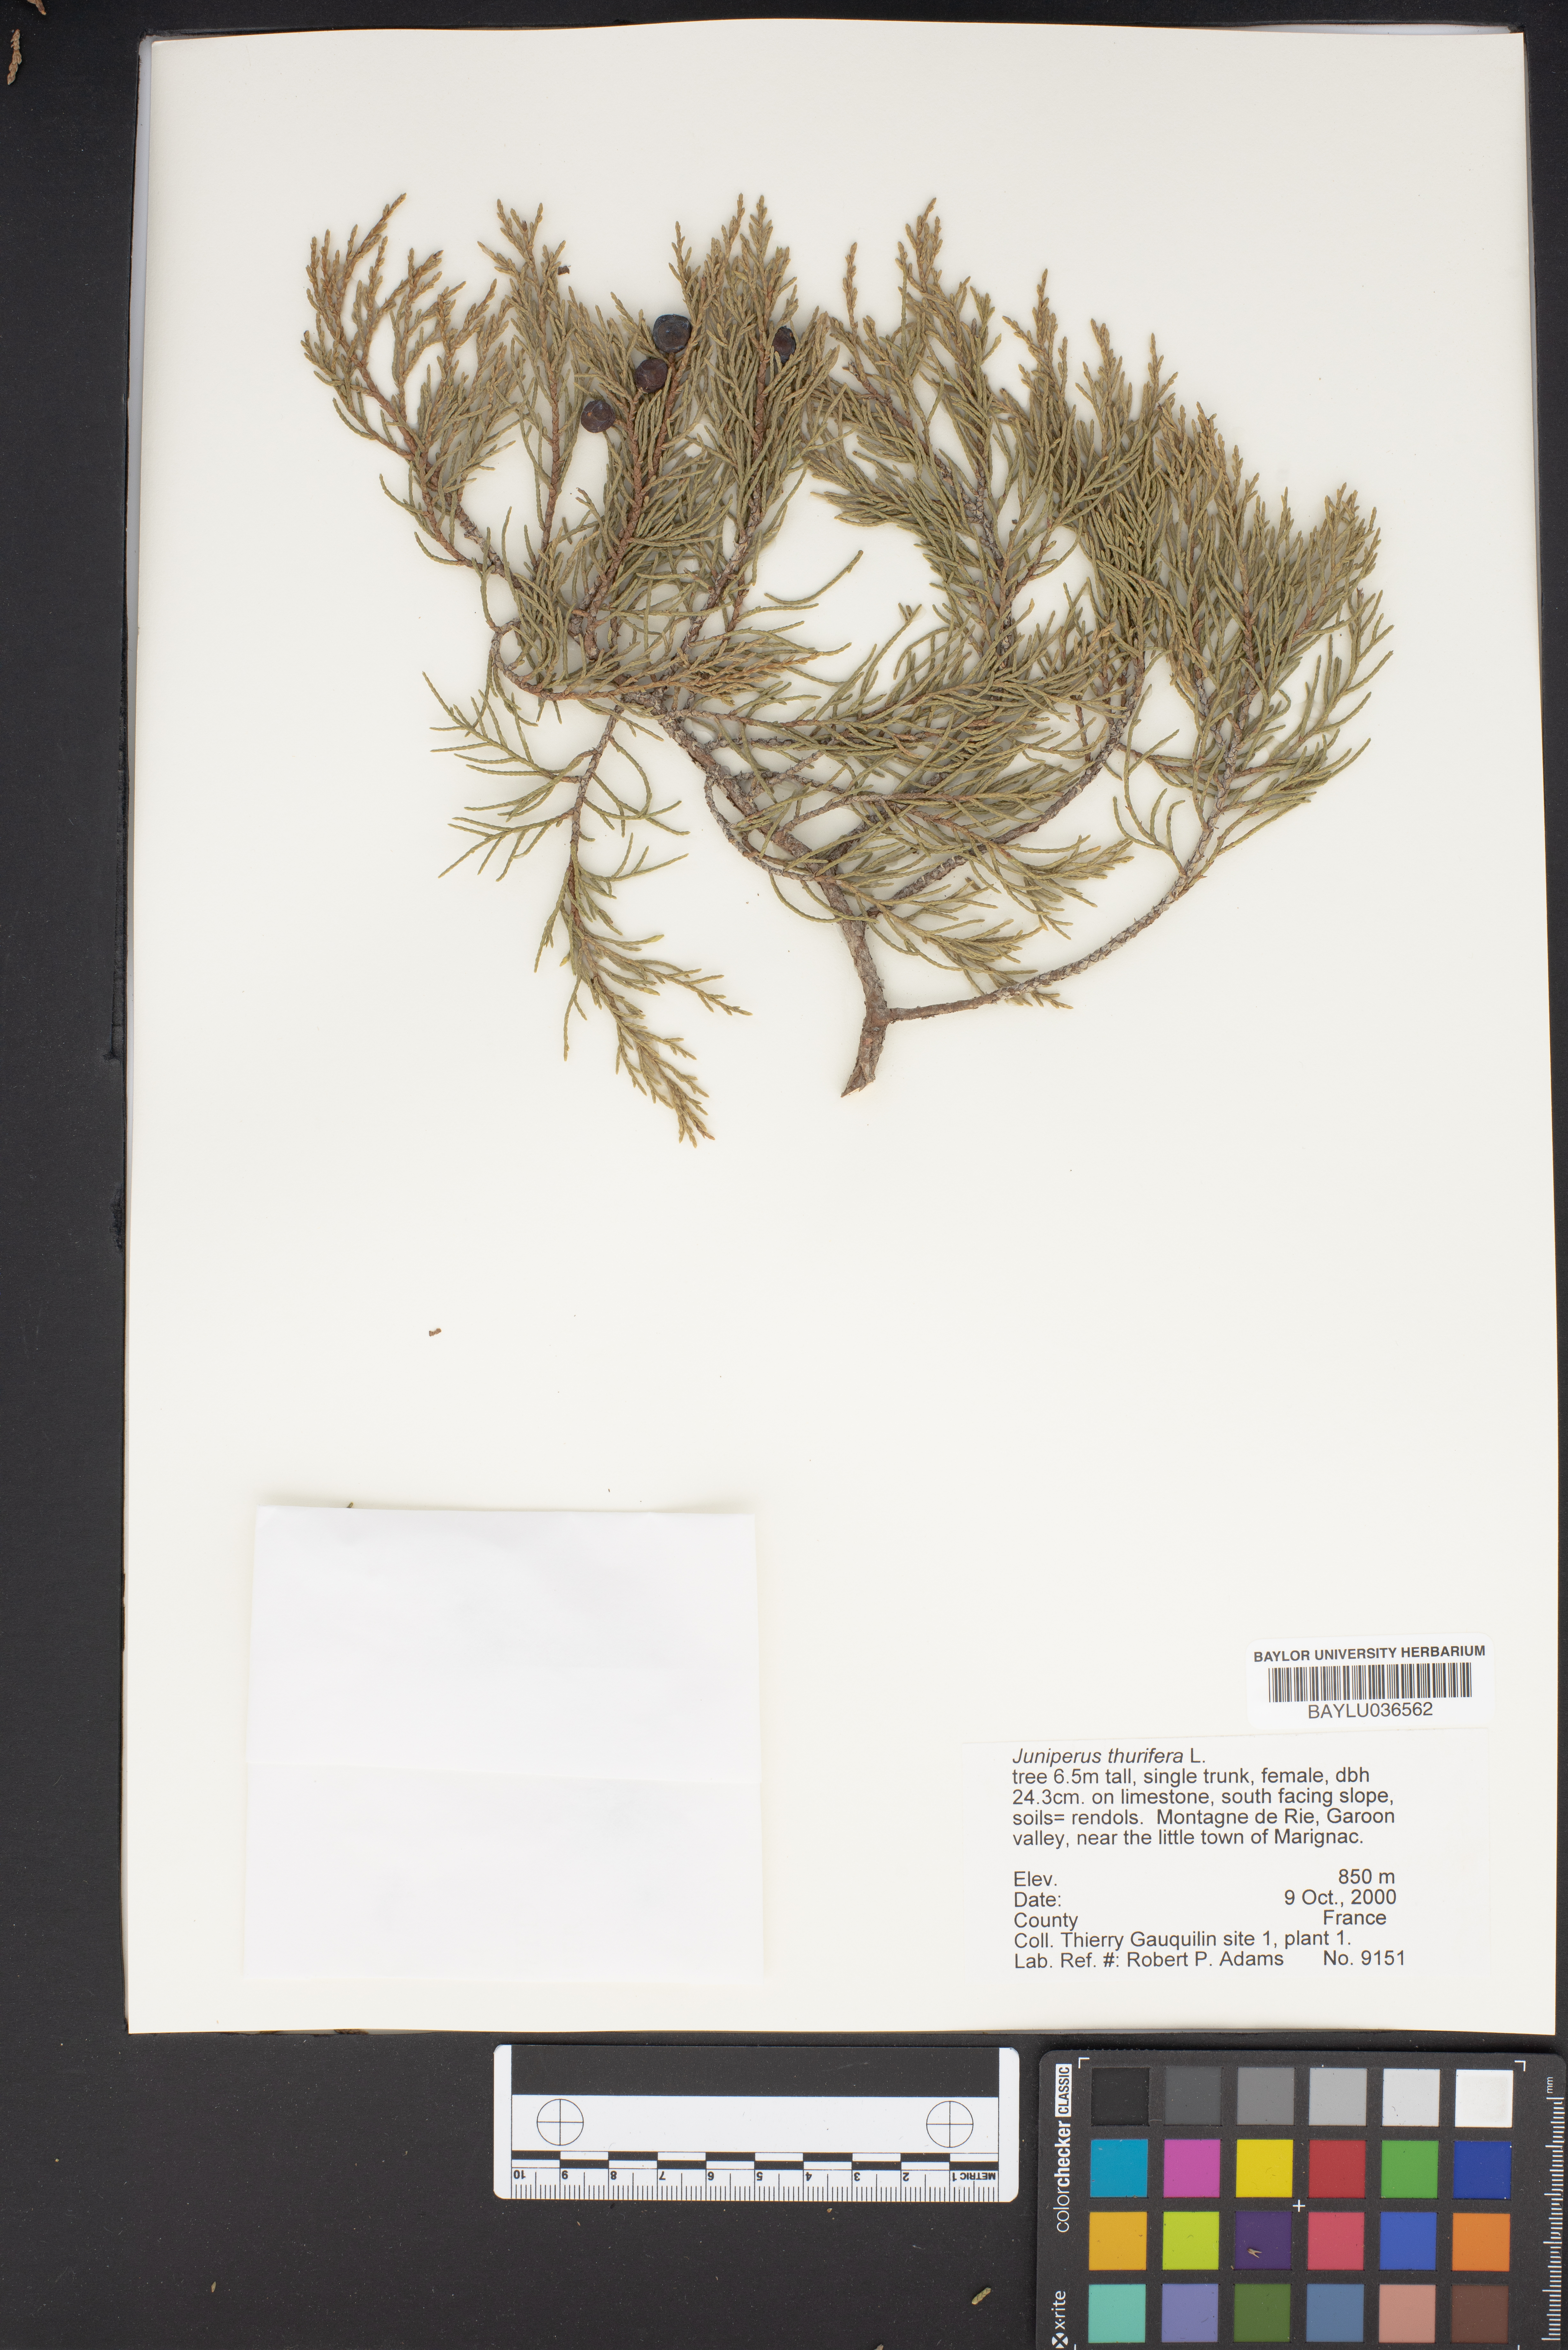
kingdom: Plantae
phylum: Tracheophyta
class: Pinopsida
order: Pinales
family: Cupressaceae
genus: Juniperus
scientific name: Juniperus thurifera
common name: Incense juniper
